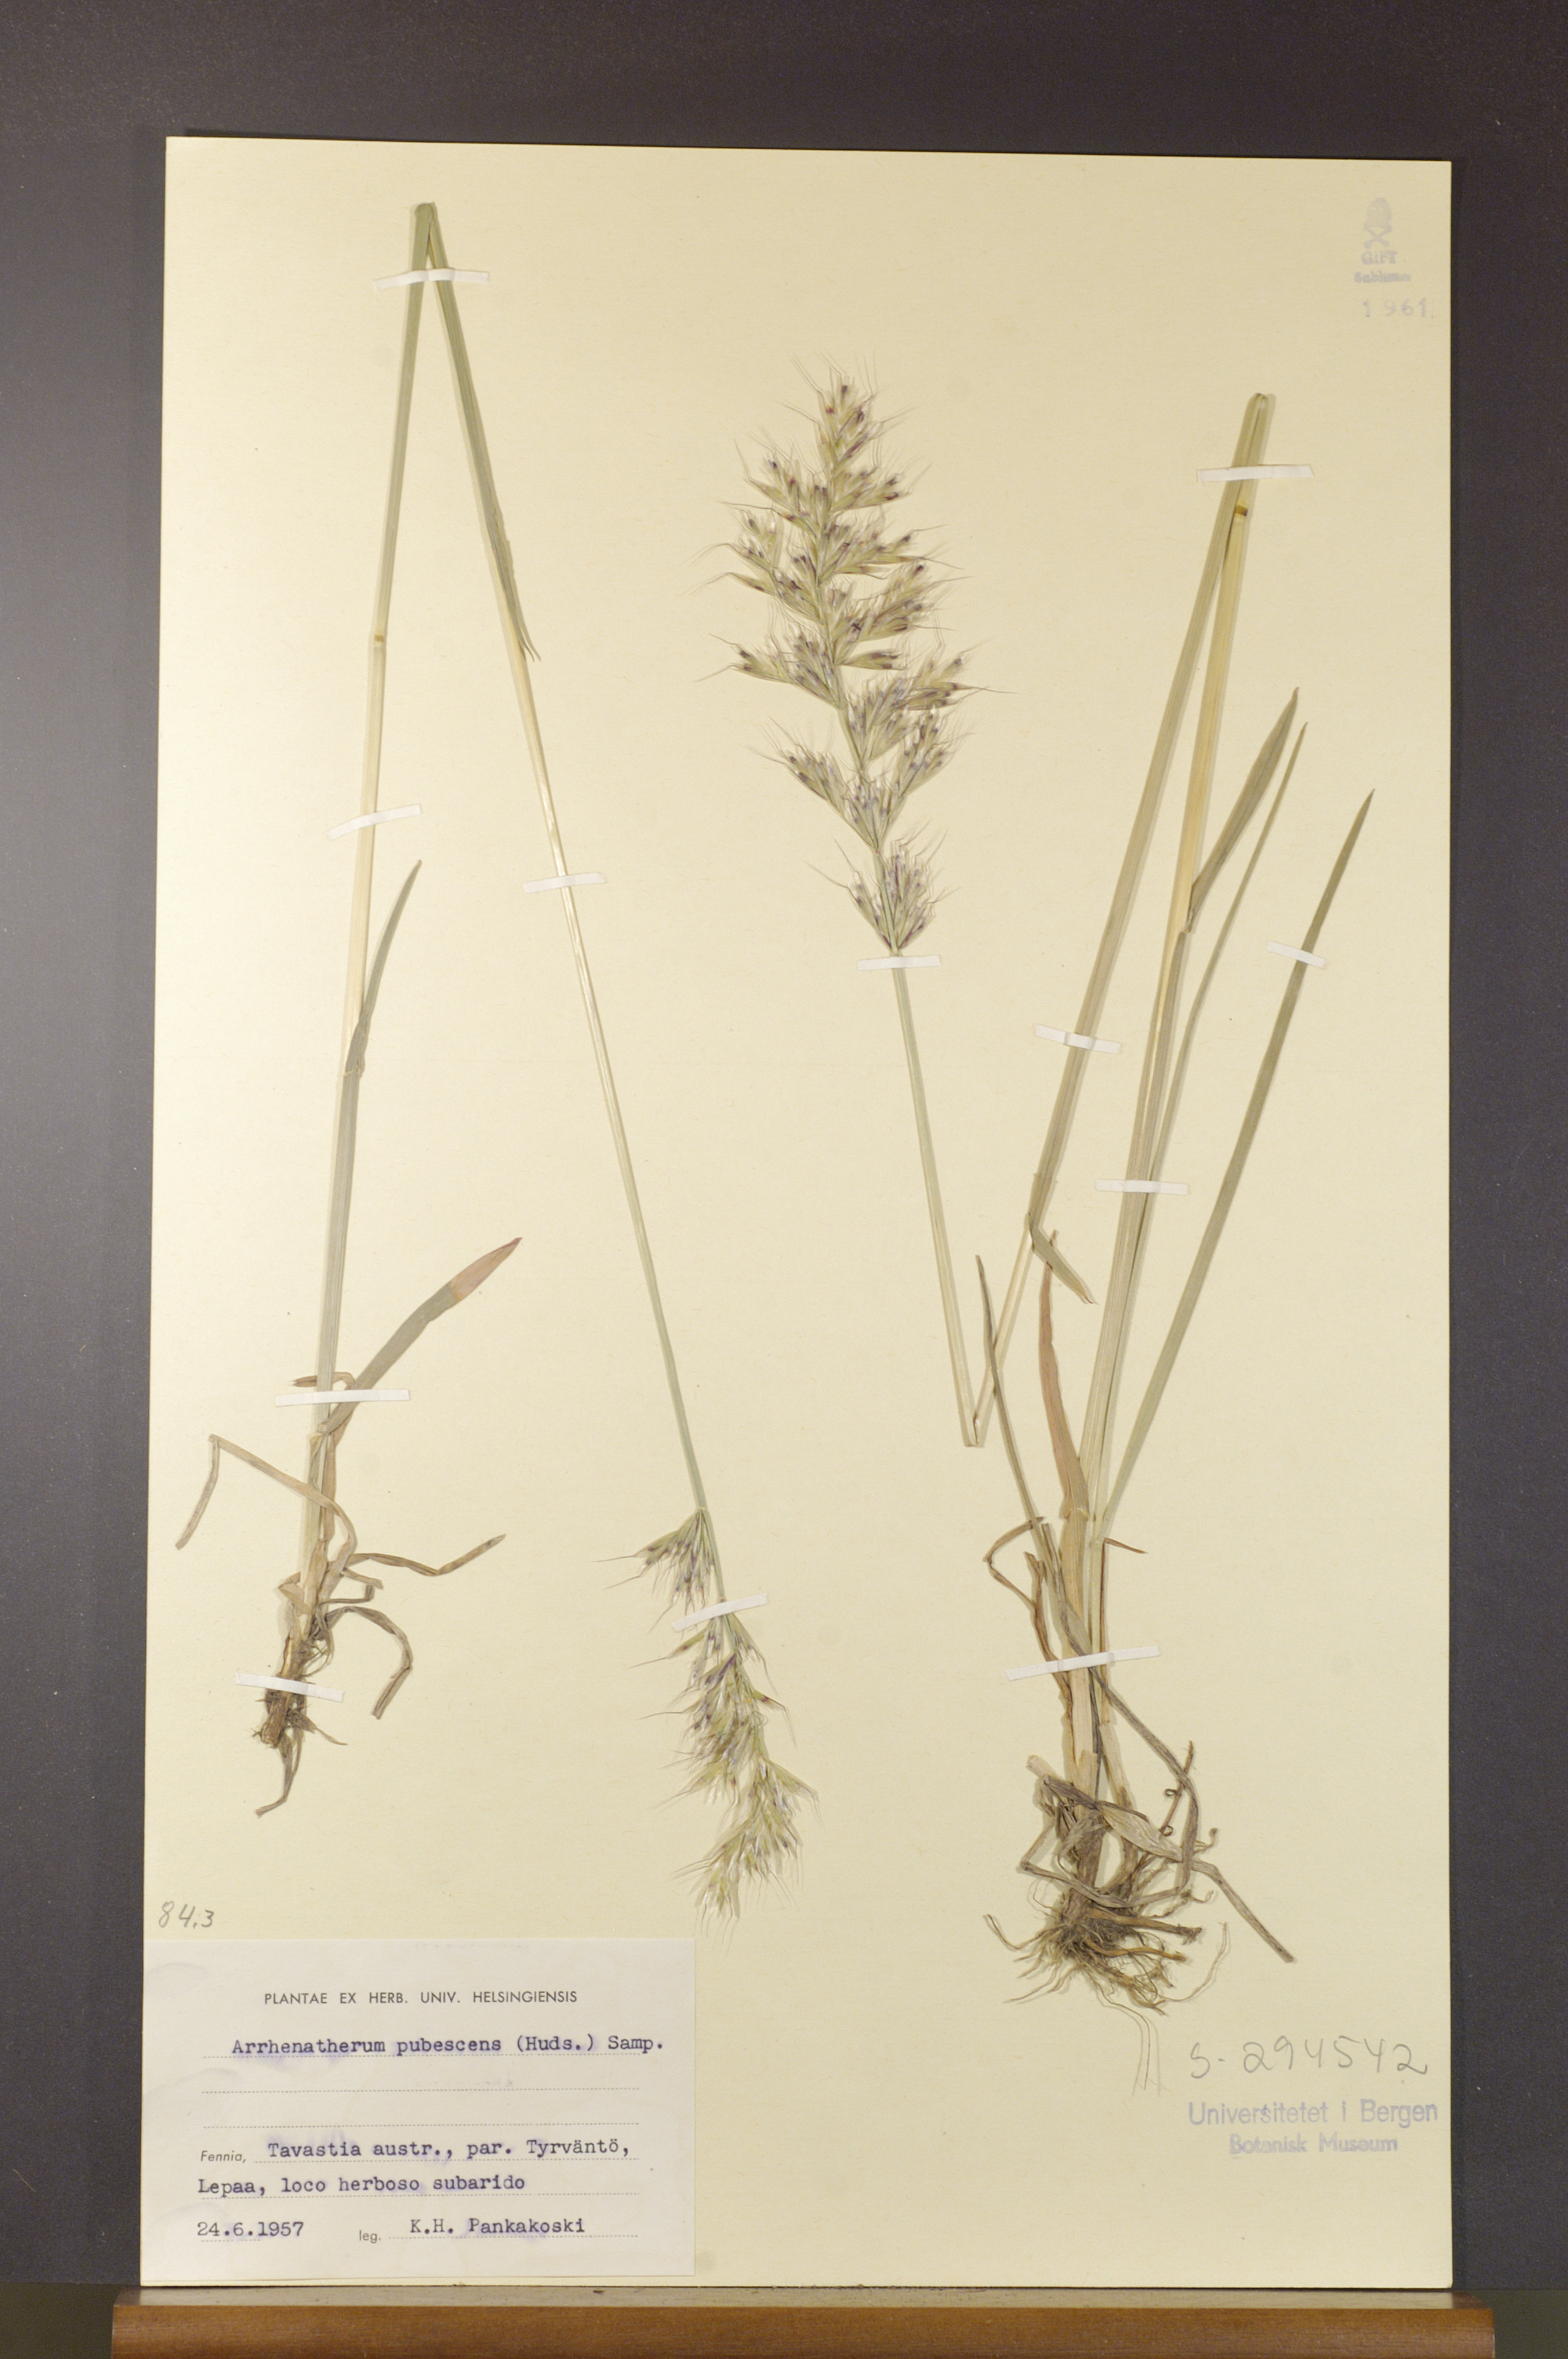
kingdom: Plantae
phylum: Tracheophyta
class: Liliopsida
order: Poales
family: Poaceae
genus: Avenula
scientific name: Avenula pubescens
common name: Downy alpine oatgrass
